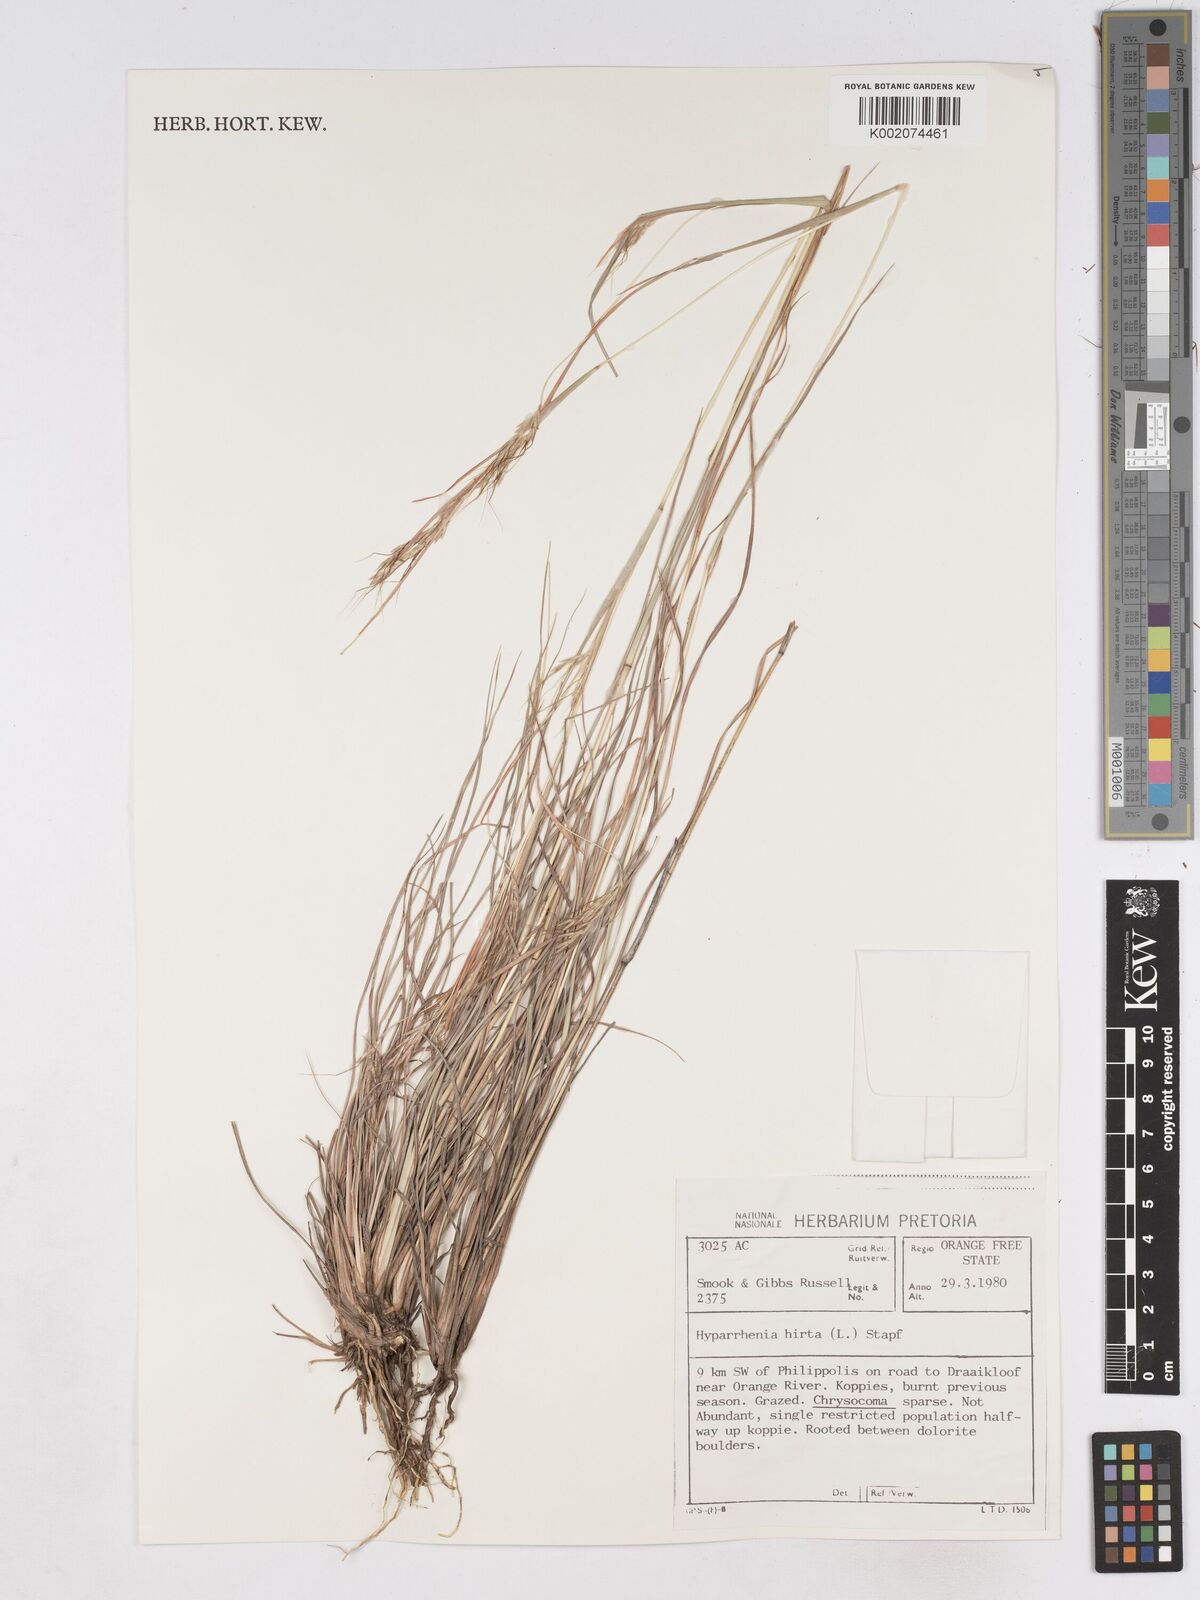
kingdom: Plantae
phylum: Tracheophyta
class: Liliopsida
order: Poales
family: Poaceae
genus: Hyparrhenia
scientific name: Hyparrhenia hirta
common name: Thatching grass
